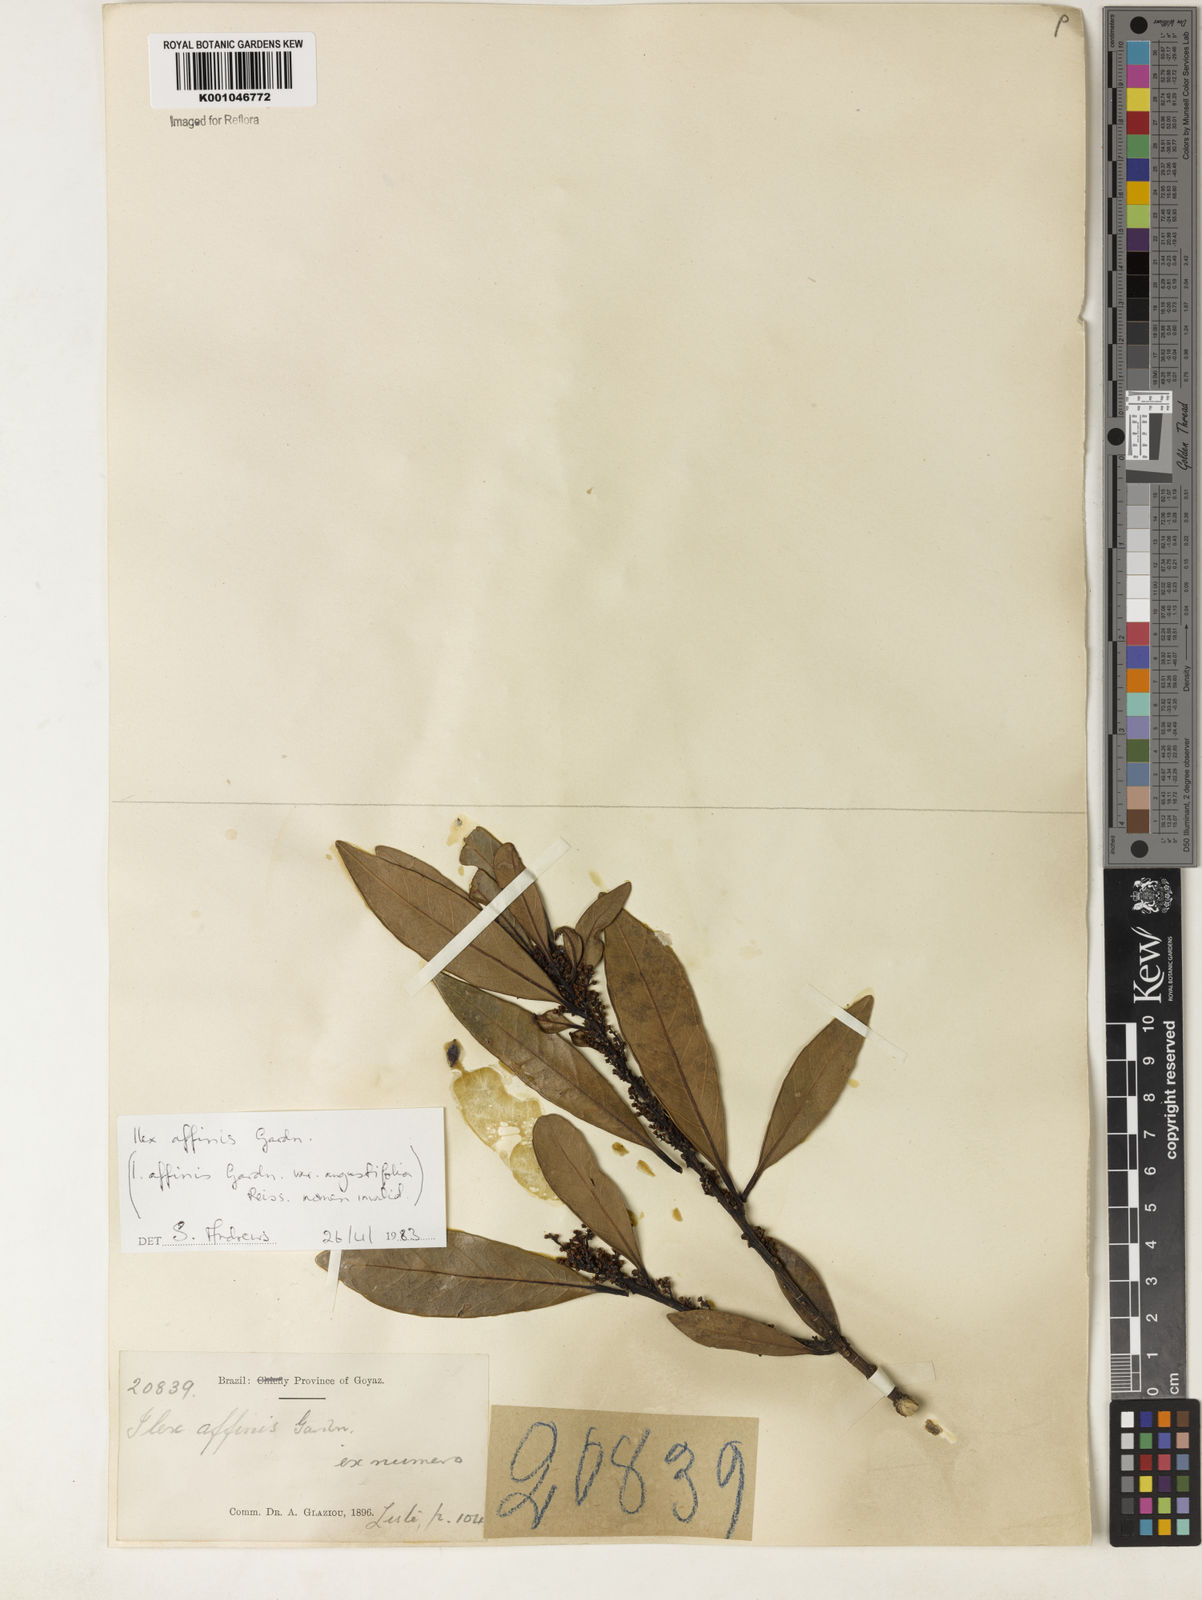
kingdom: Plantae
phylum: Tracheophyta
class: Magnoliopsida
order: Aquifoliales
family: Aquifoliaceae
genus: Ilex
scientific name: Ilex affinis
